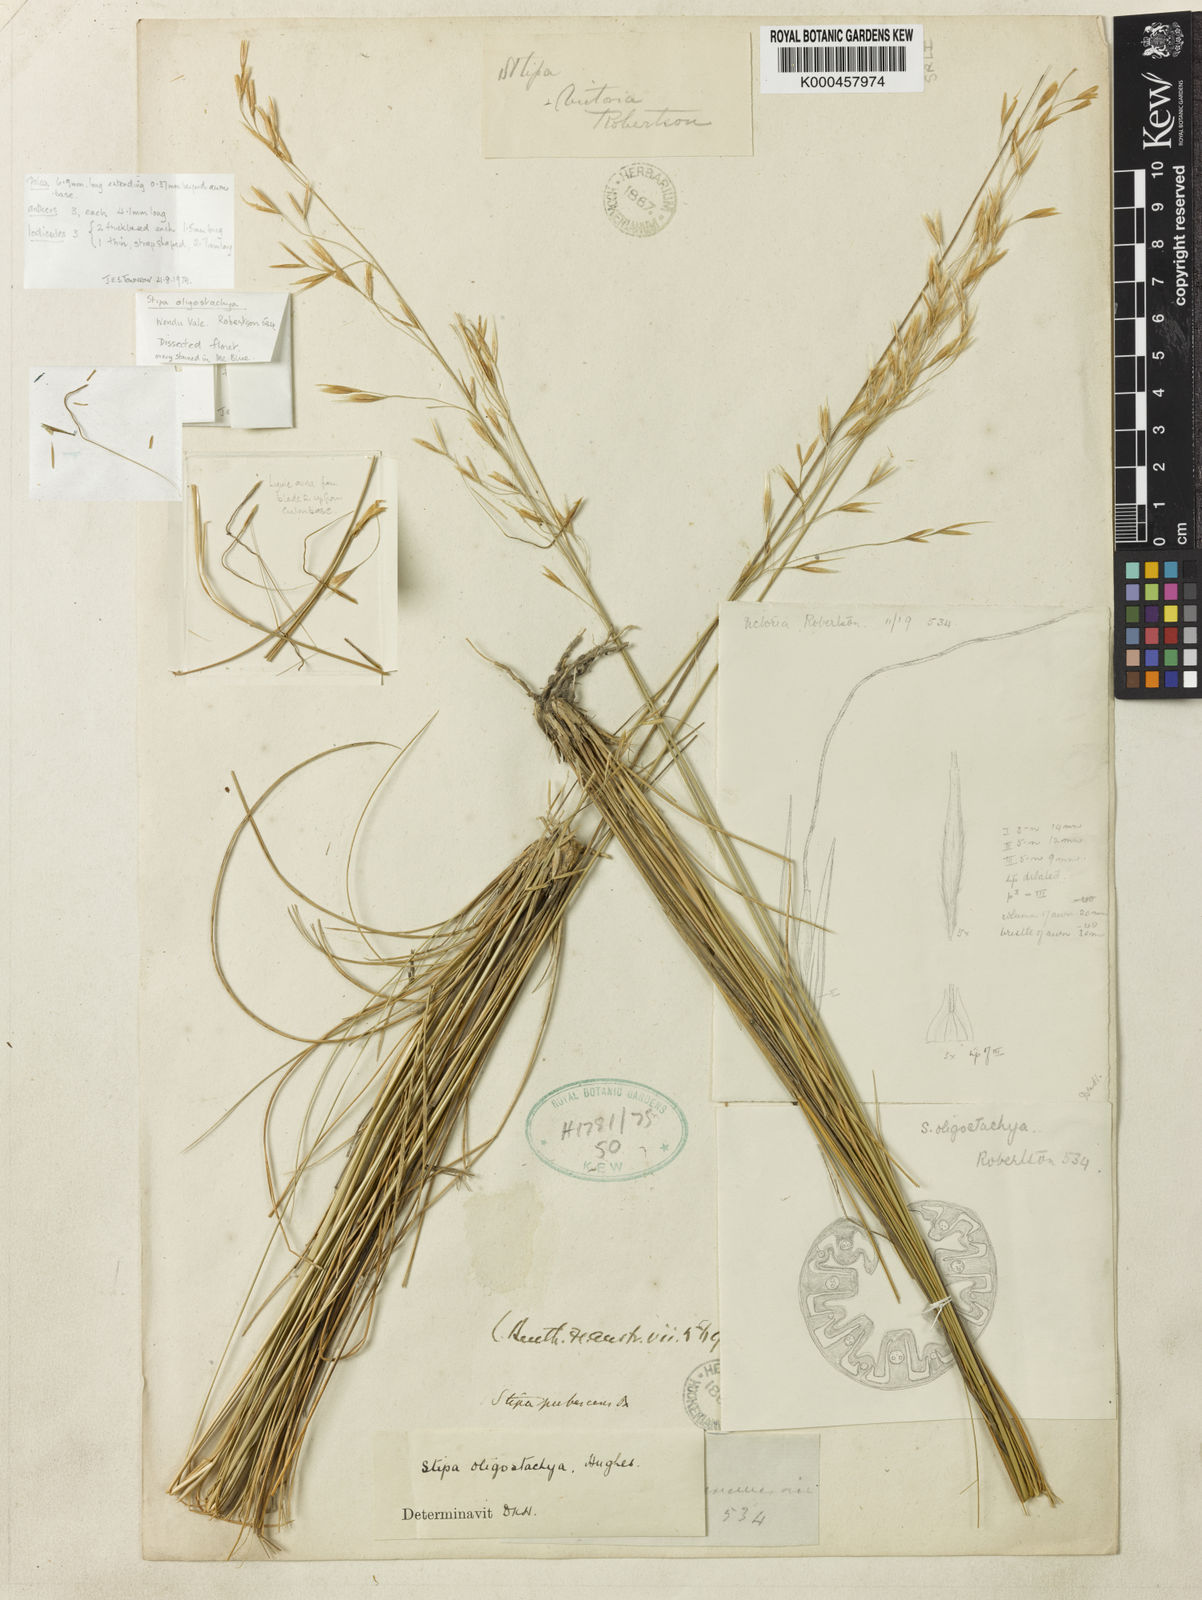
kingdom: Plantae
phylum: Tracheophyta
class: Liliopsida
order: Poales
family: Poaceae
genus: Austrostipa
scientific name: Austrostipa oligostachya
